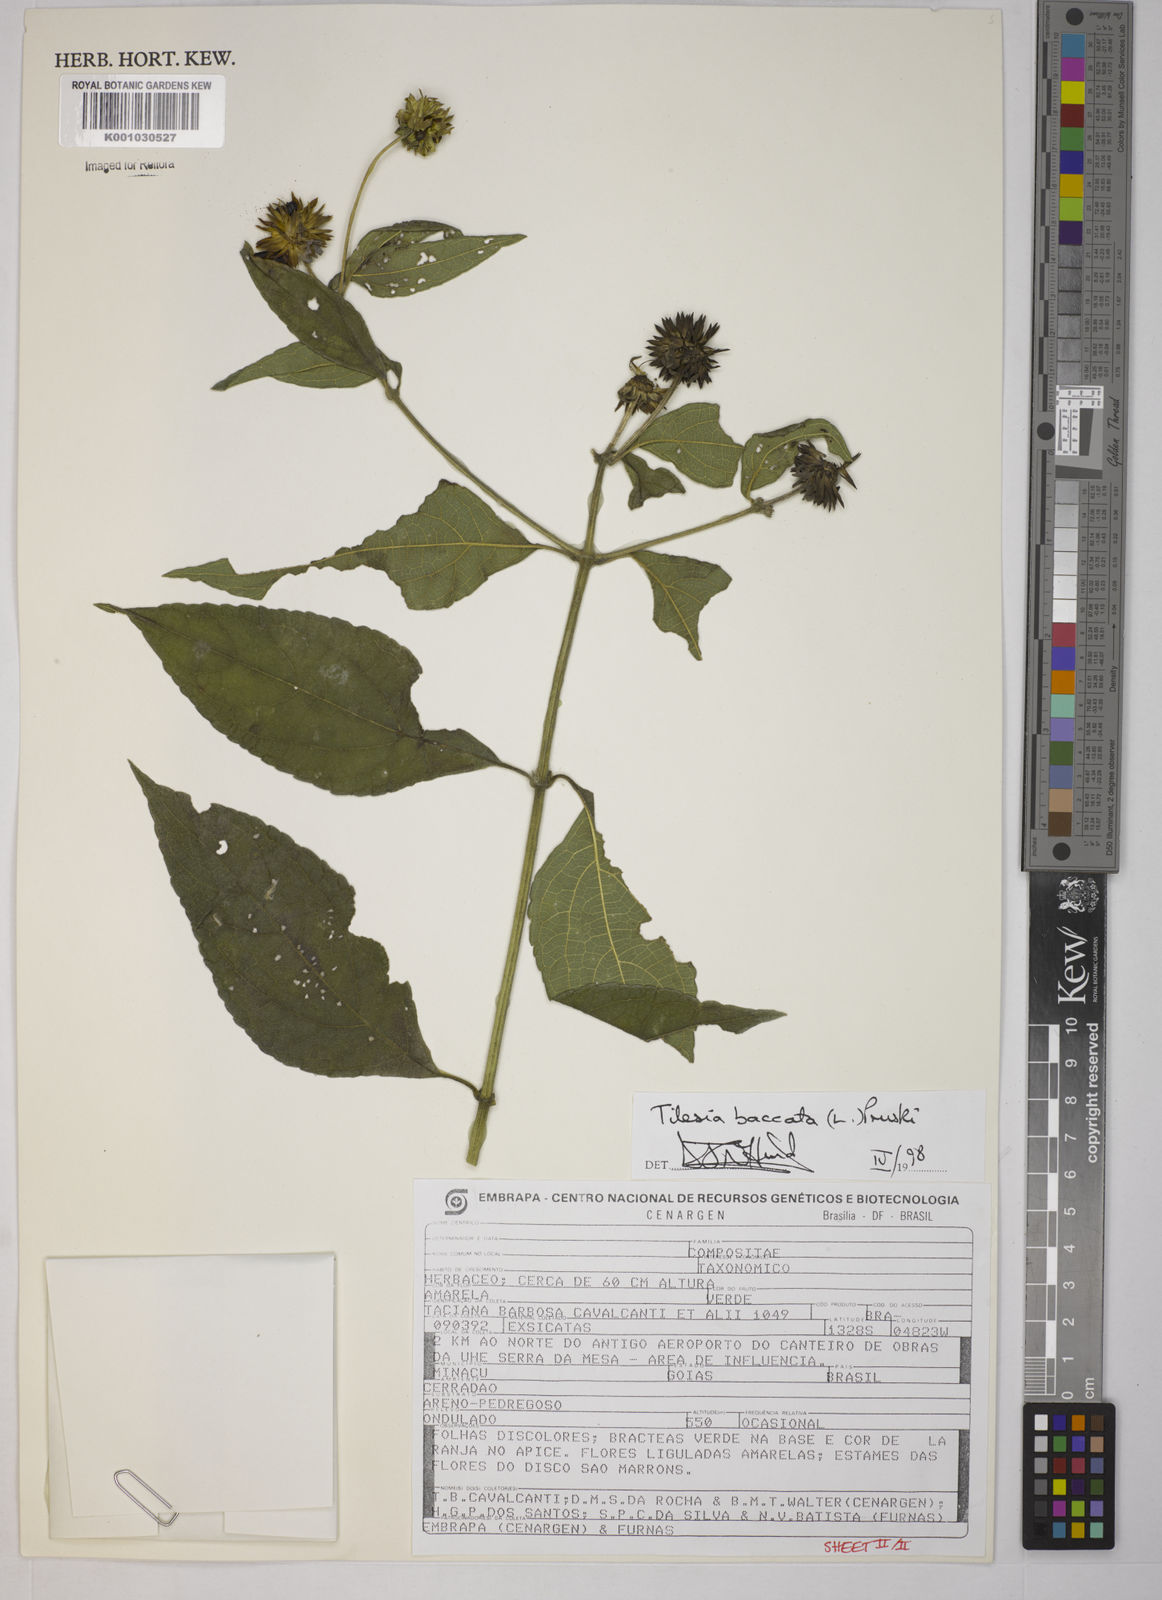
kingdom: Plantae
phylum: Tracheophyta
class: Magnoliopsida
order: Asterales
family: Asteraceae
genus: Tilesia
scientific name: Tilesia baccata
